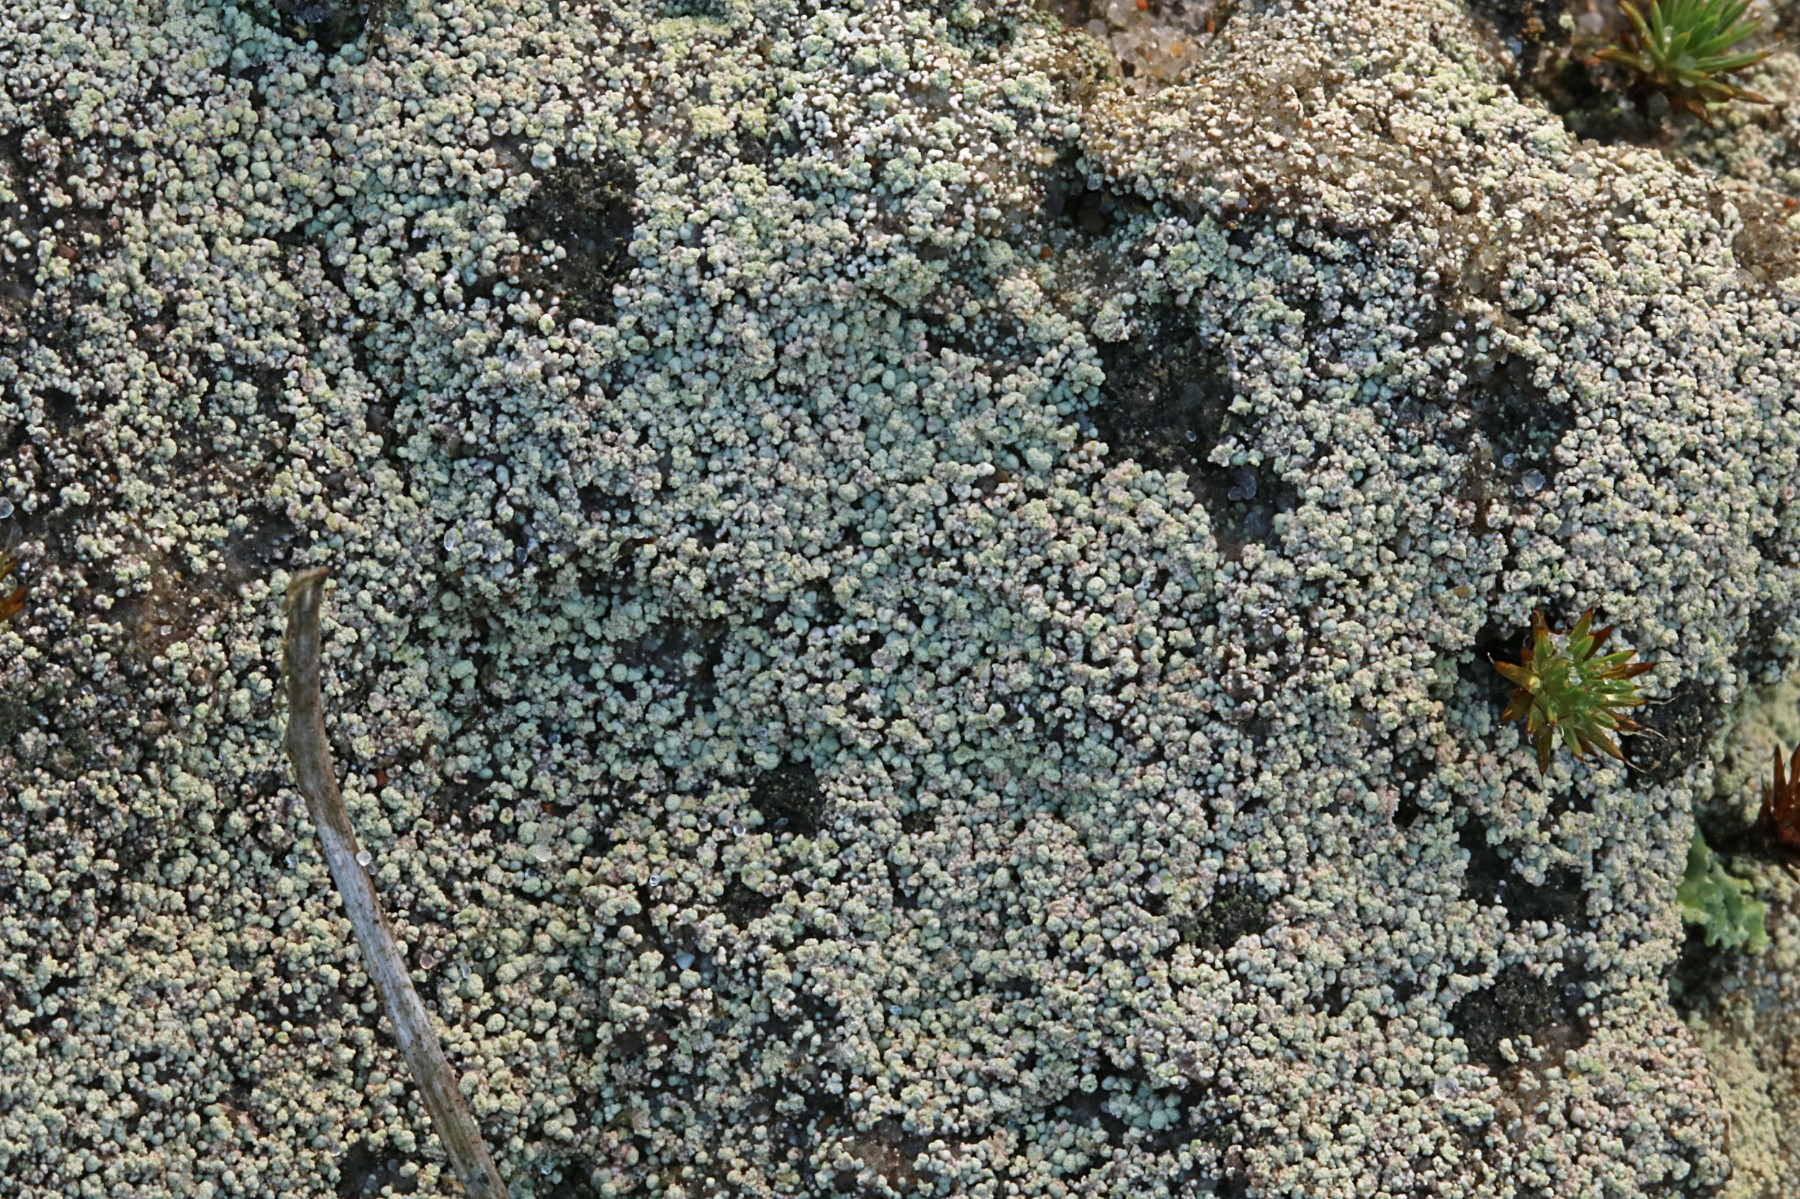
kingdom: Fungi
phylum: Ascomycota
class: Lecanoromycetes
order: Baeomycetales
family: Trapeliaceae
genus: Trapeliopsis
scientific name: Trapeliopsis granulosa
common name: forskelligfarvet skivelav
